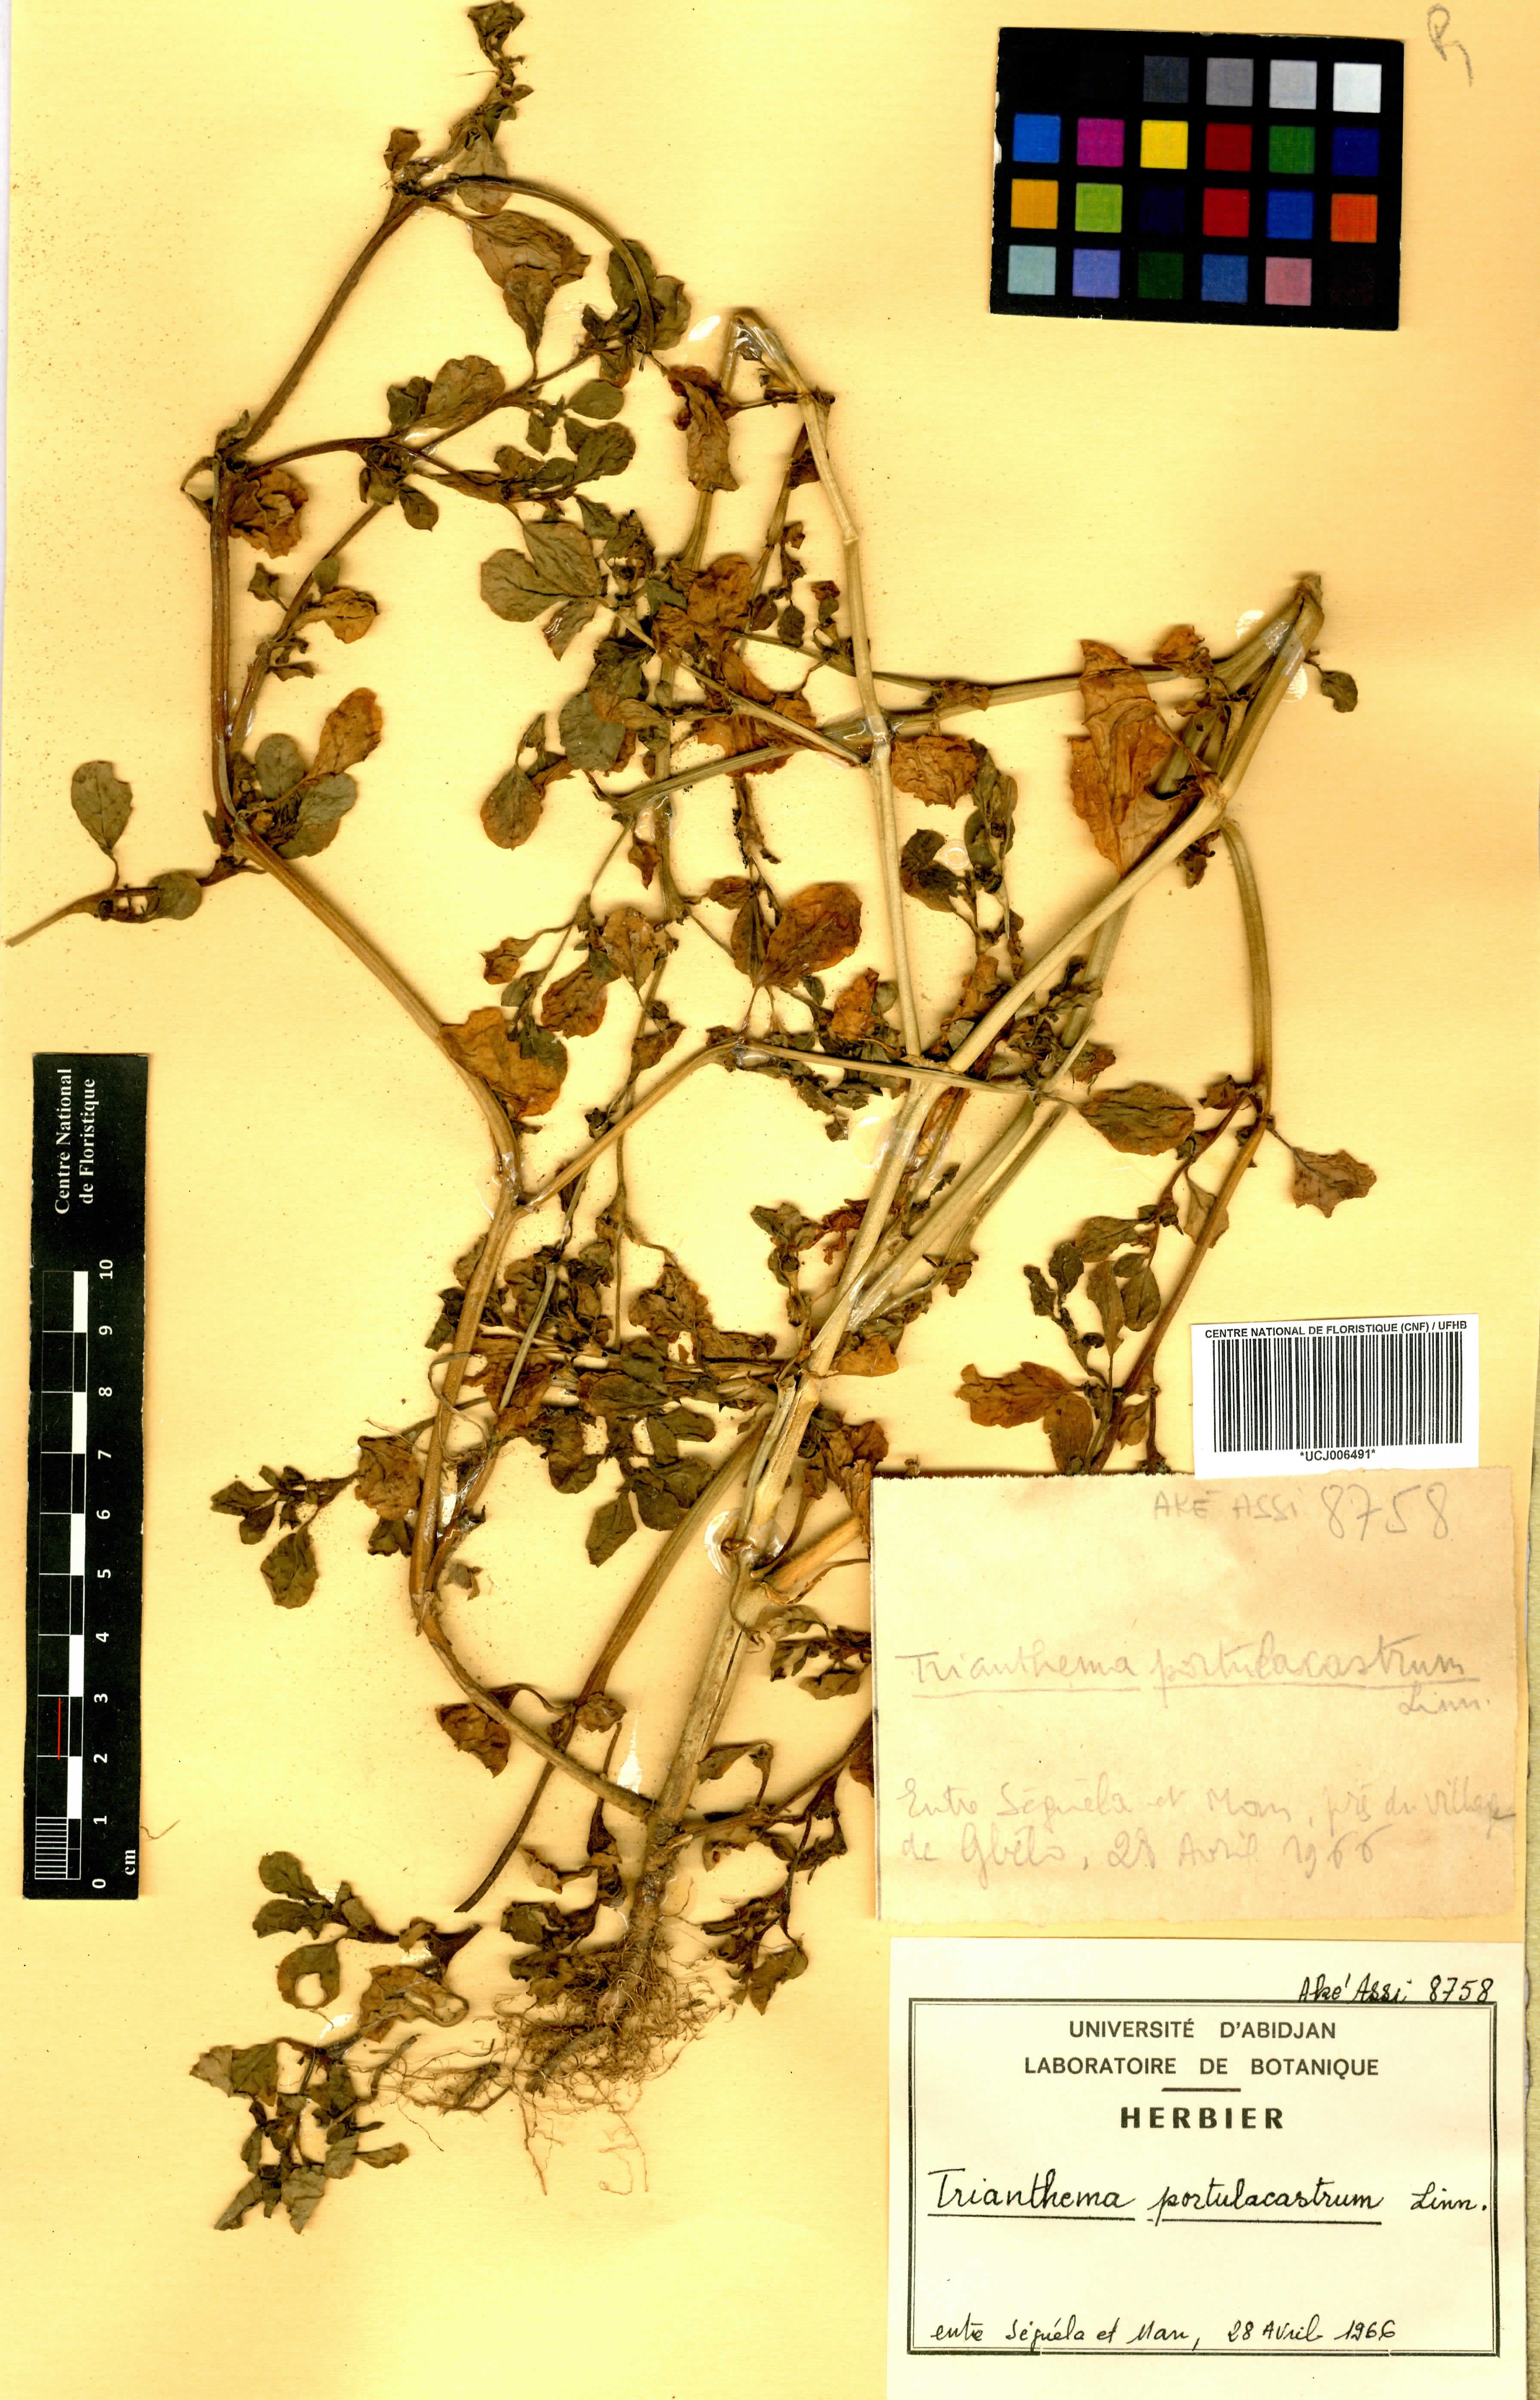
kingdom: Plantae
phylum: Tracheophyta
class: Magnoliopsida
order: Caryophyllales
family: Aizoaceae
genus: Trianthema
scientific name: Trianthema portulacastrum
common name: Desert horsepurslane
